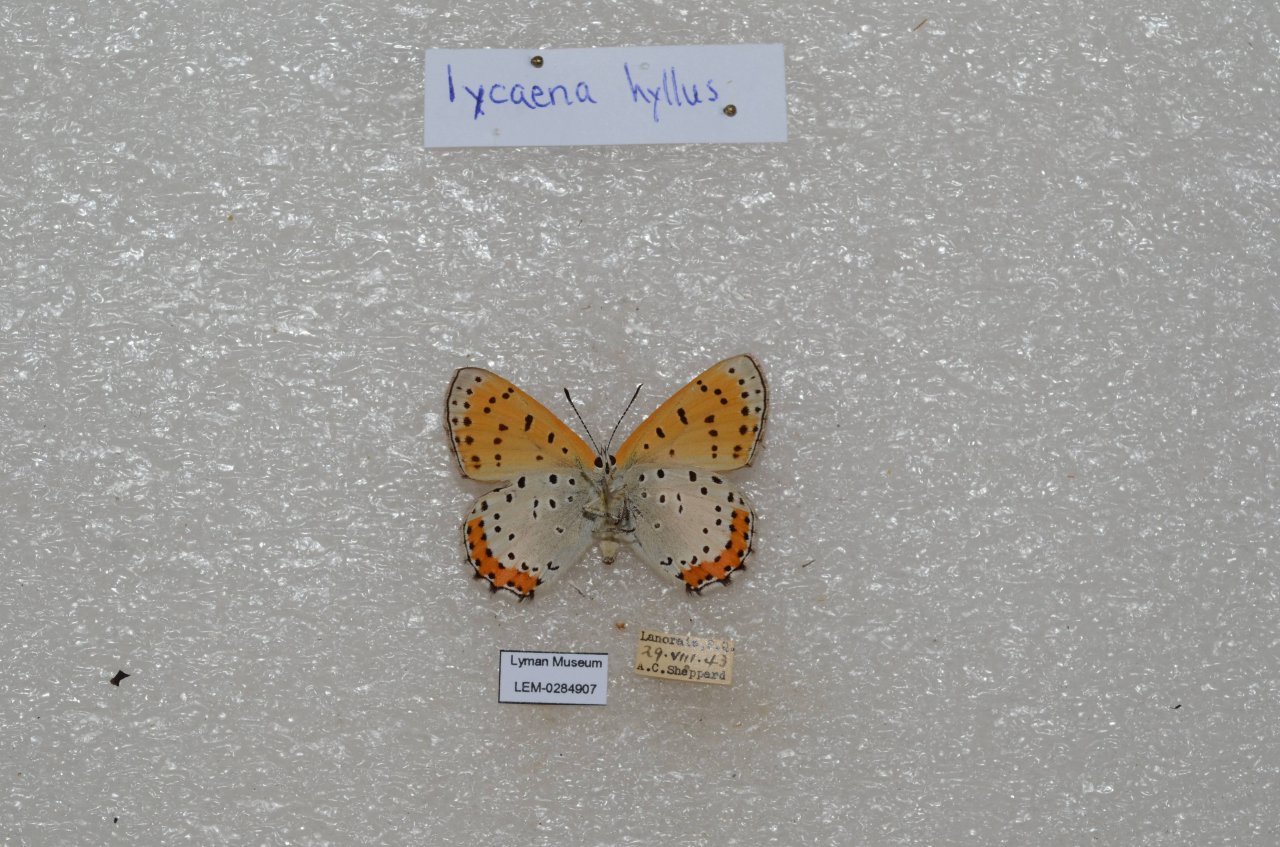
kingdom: Animalia
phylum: Arthropoda
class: Insecta
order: Lepidoptera
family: Sesiidae
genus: Sesia
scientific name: Sesia Lycaena hyllus
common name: Bronze Copper
